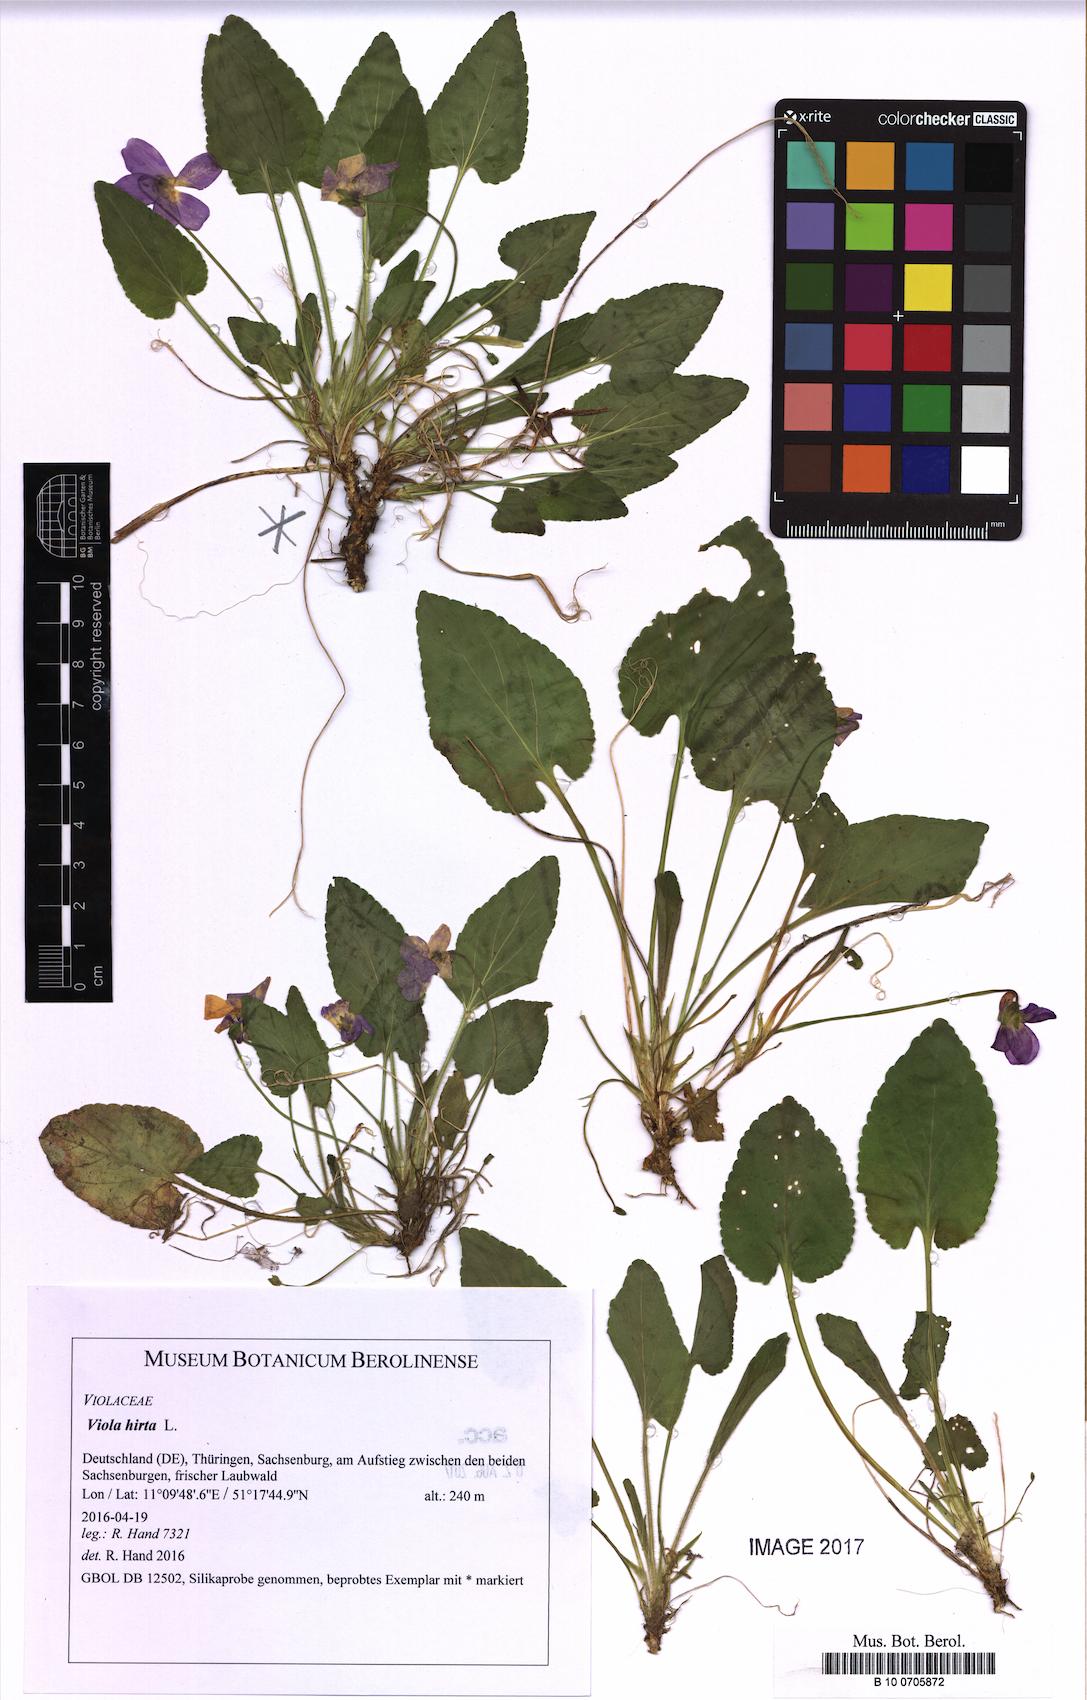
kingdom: Plantae
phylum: Tracheophyta
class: Magnoliopsida
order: Malpighiales
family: Violaceae
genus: Viola
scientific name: Viola hirta
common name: Hairy violet
